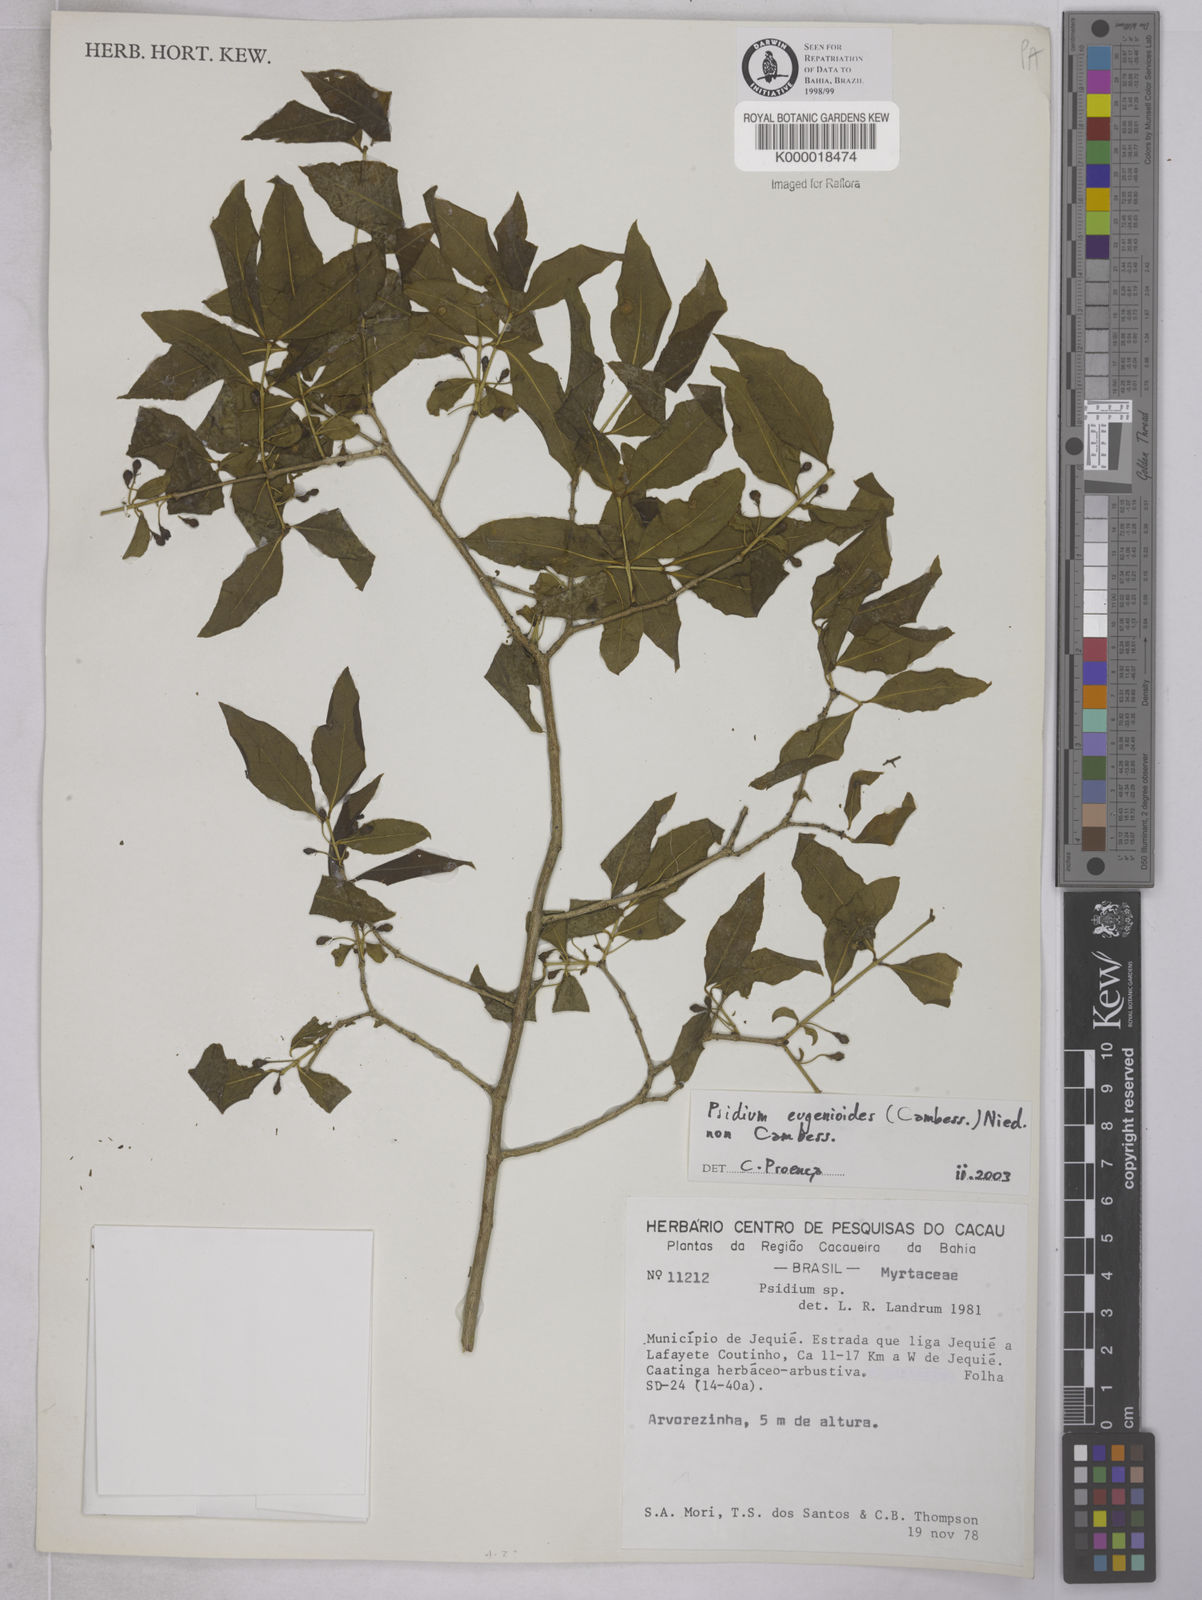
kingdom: Plantae
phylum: Tracheophyta
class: Magnoliopsida
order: Myrtales
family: Myrtaceae
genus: Psidium
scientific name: Psidium
